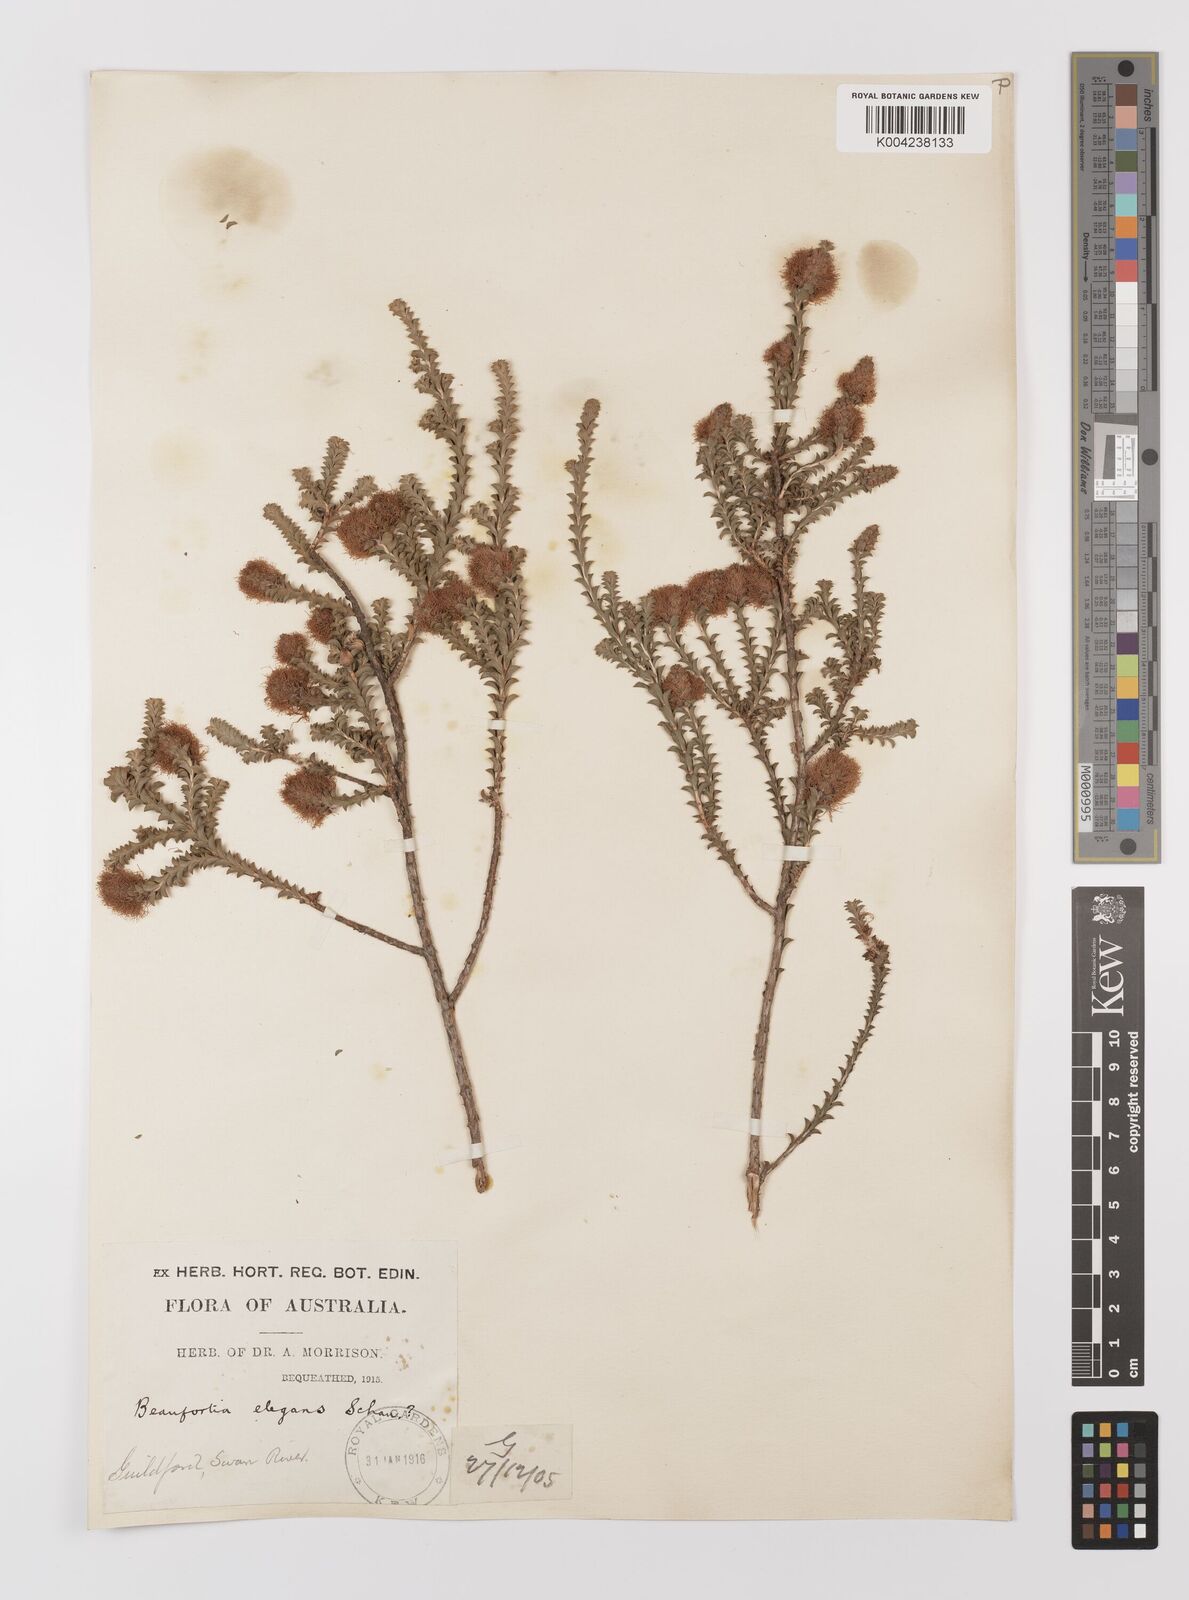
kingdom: Plantae
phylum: Tracheophyta
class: Magnoliopsida
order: Myrtales
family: Myrtaceae
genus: Melaleuca
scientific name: Melaleuca scitula
